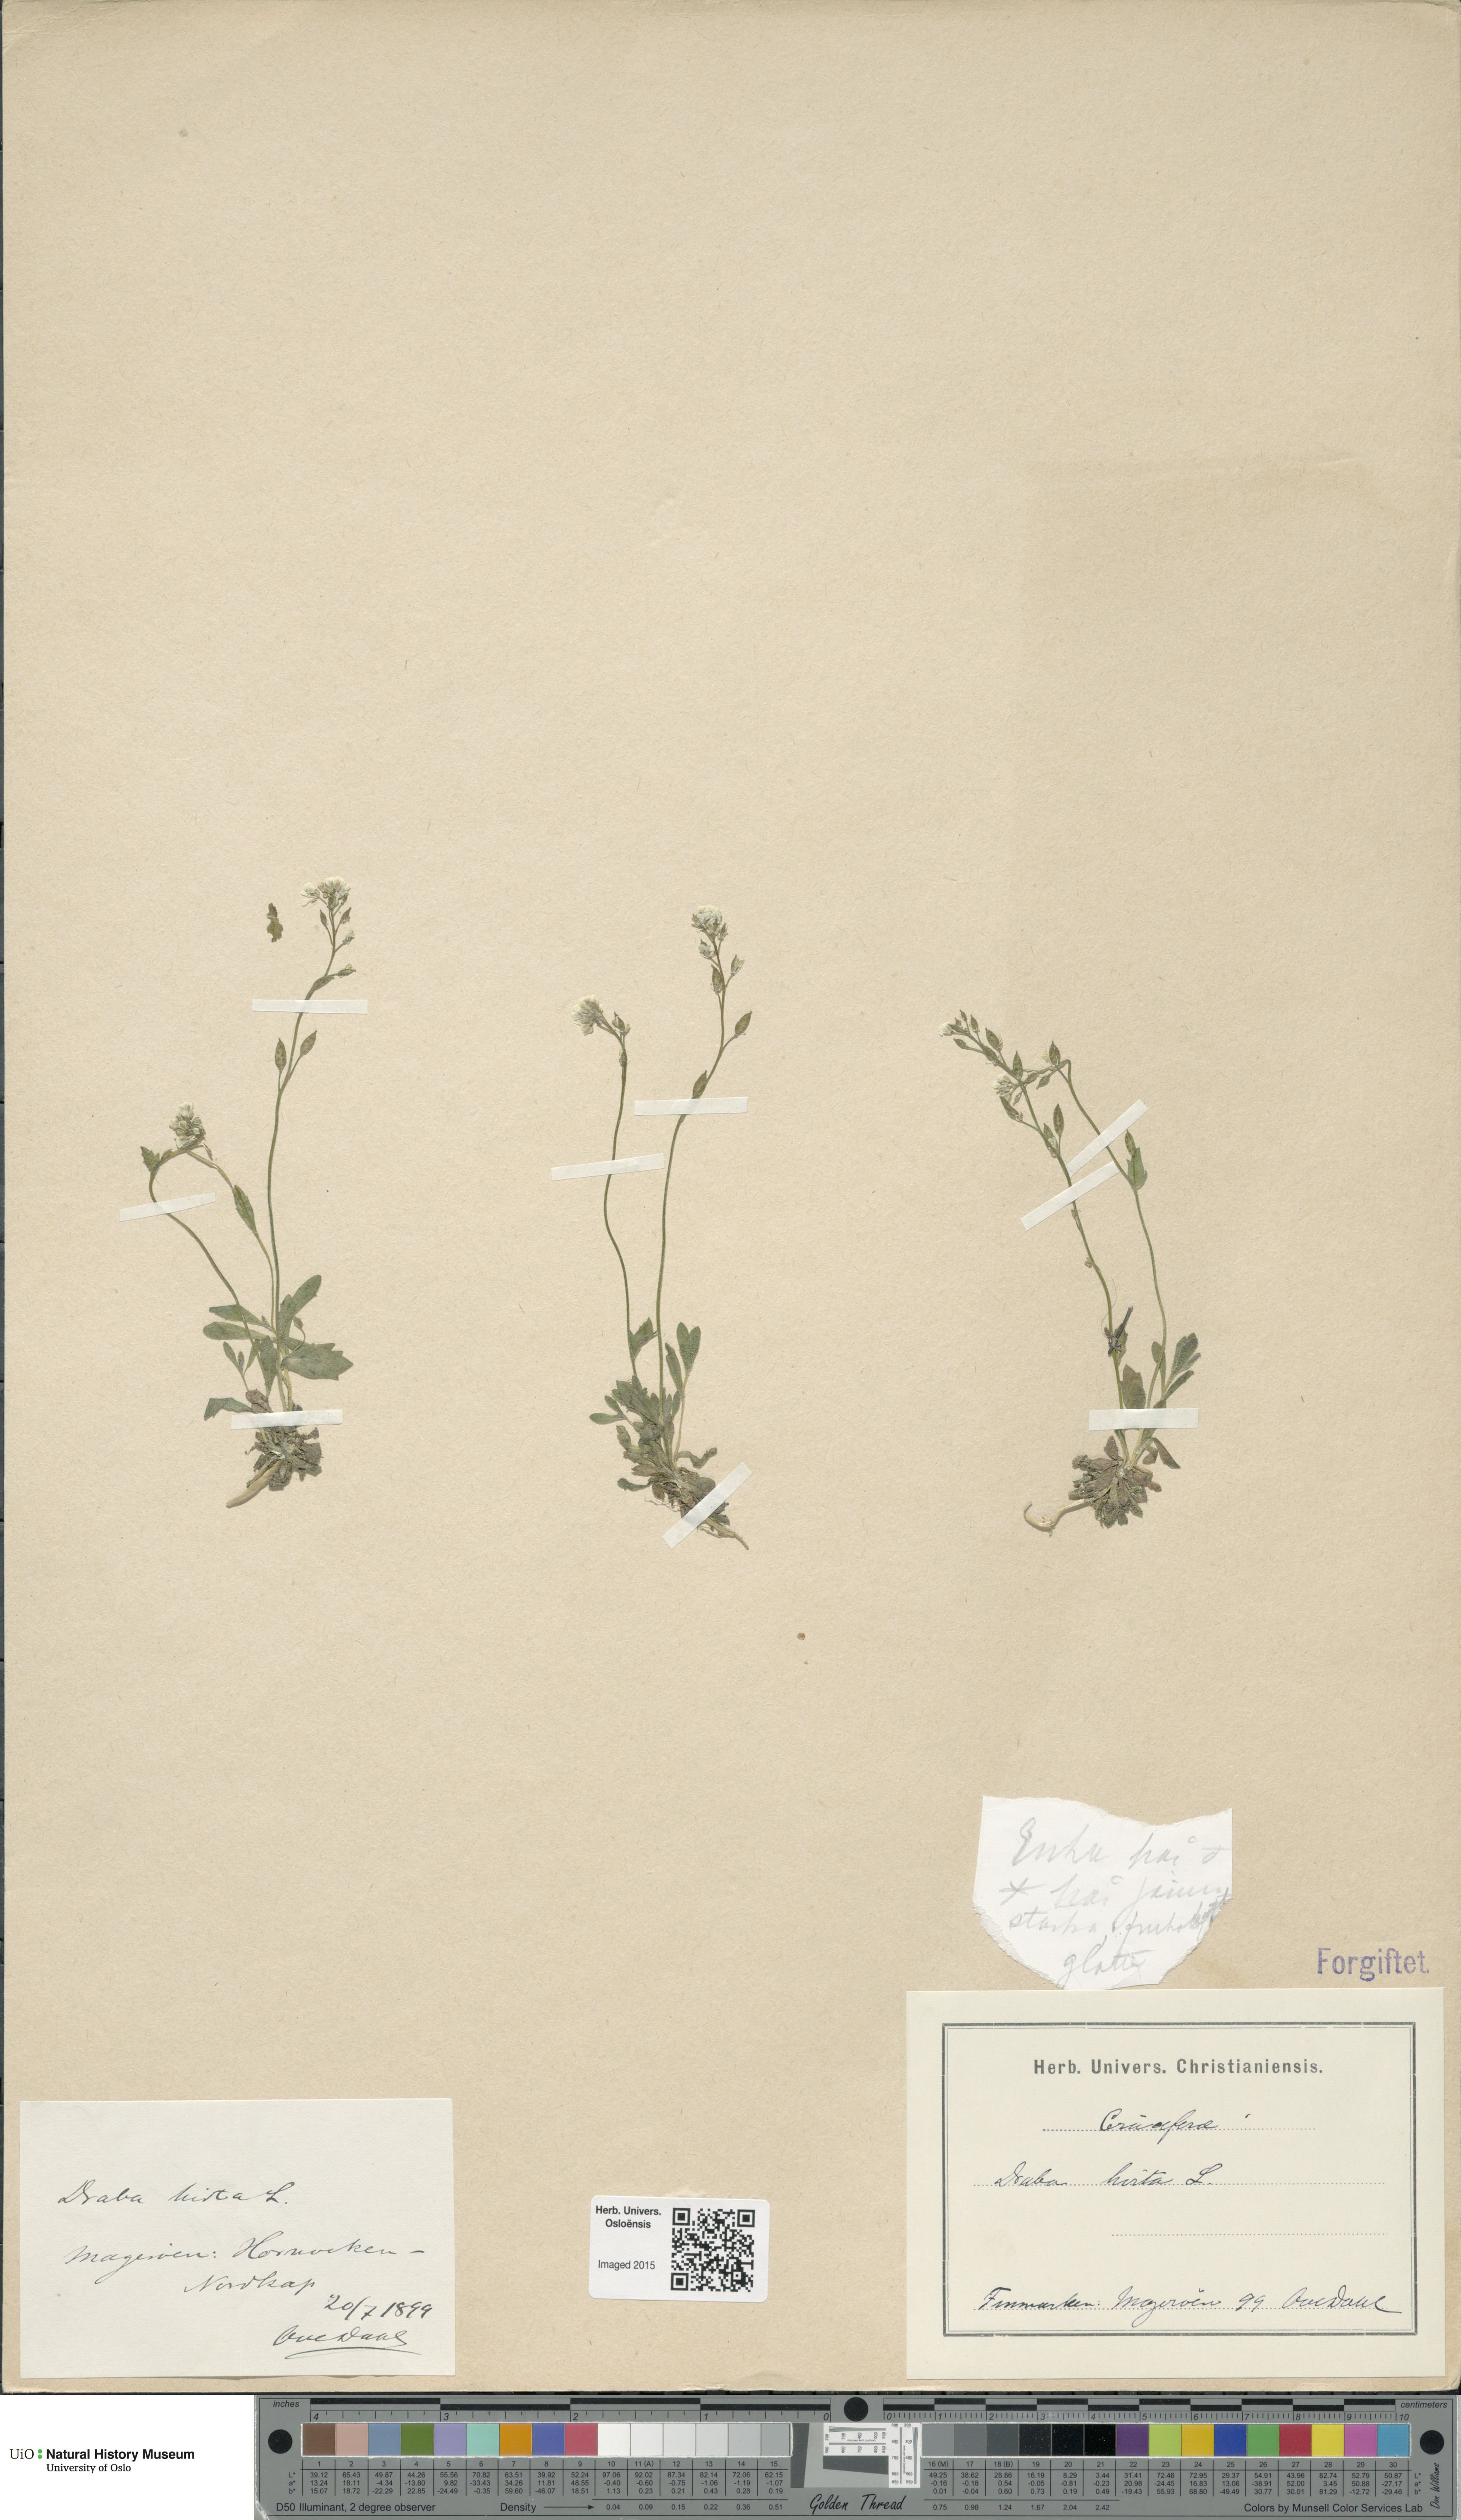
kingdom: Plantae
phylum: Tracheophyta
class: Magnoliopsida
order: Brassicales
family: Brassicaceae
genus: Draba
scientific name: Draba norvegica
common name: Rock whitlowgrass
